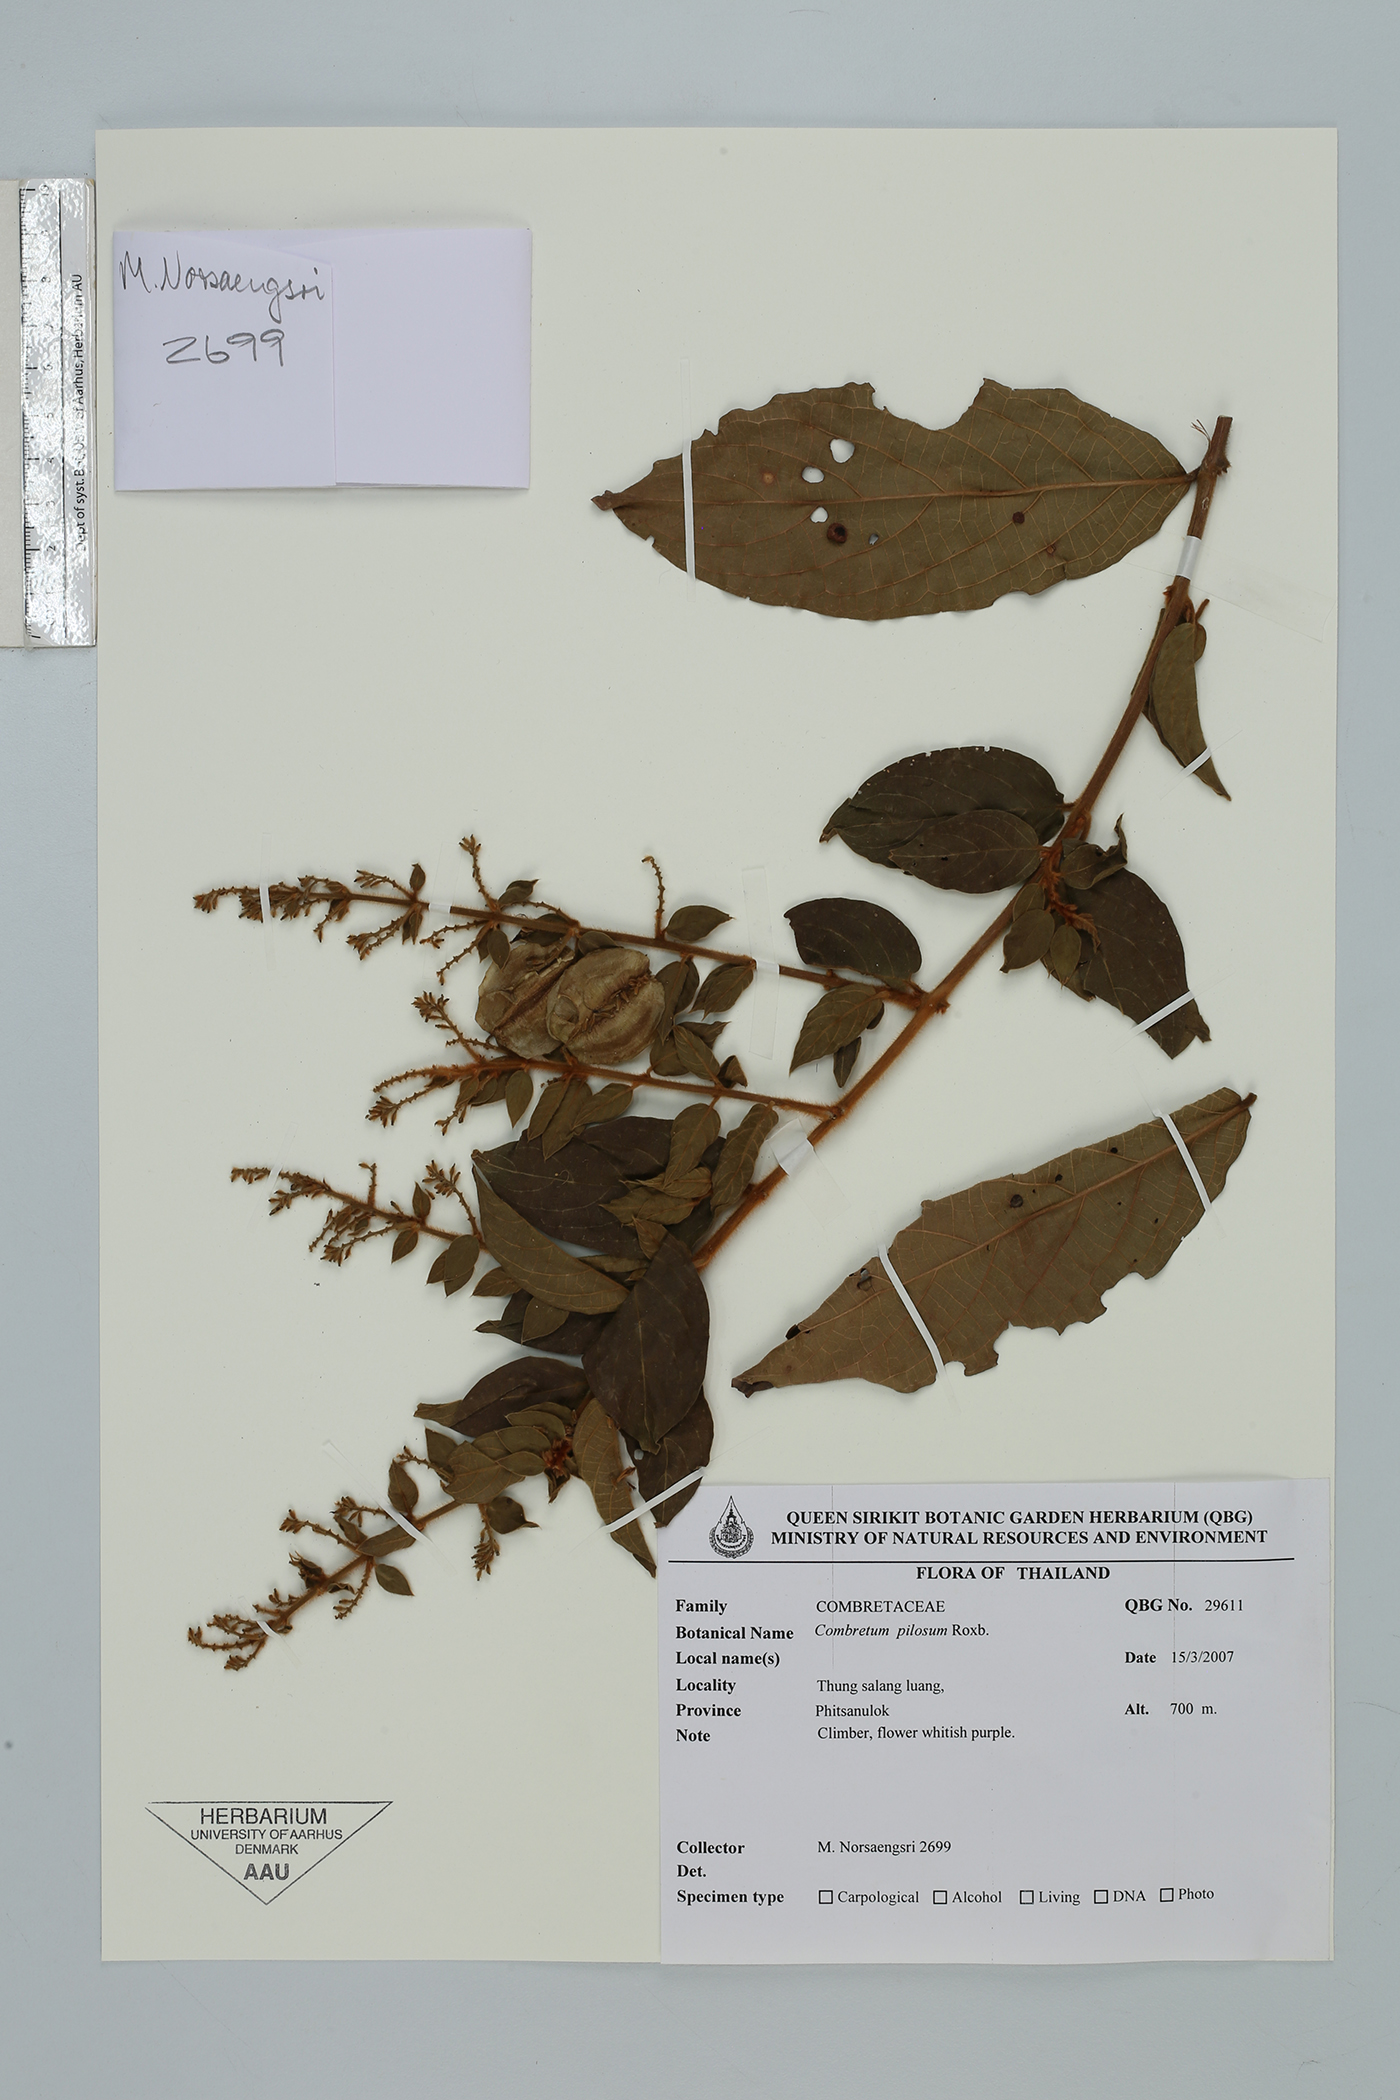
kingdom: Plantae
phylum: Tracheophyta
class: Magnoliopsida
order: Myrtales
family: Combretaceae
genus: Combretum
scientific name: Combretum pilosum
